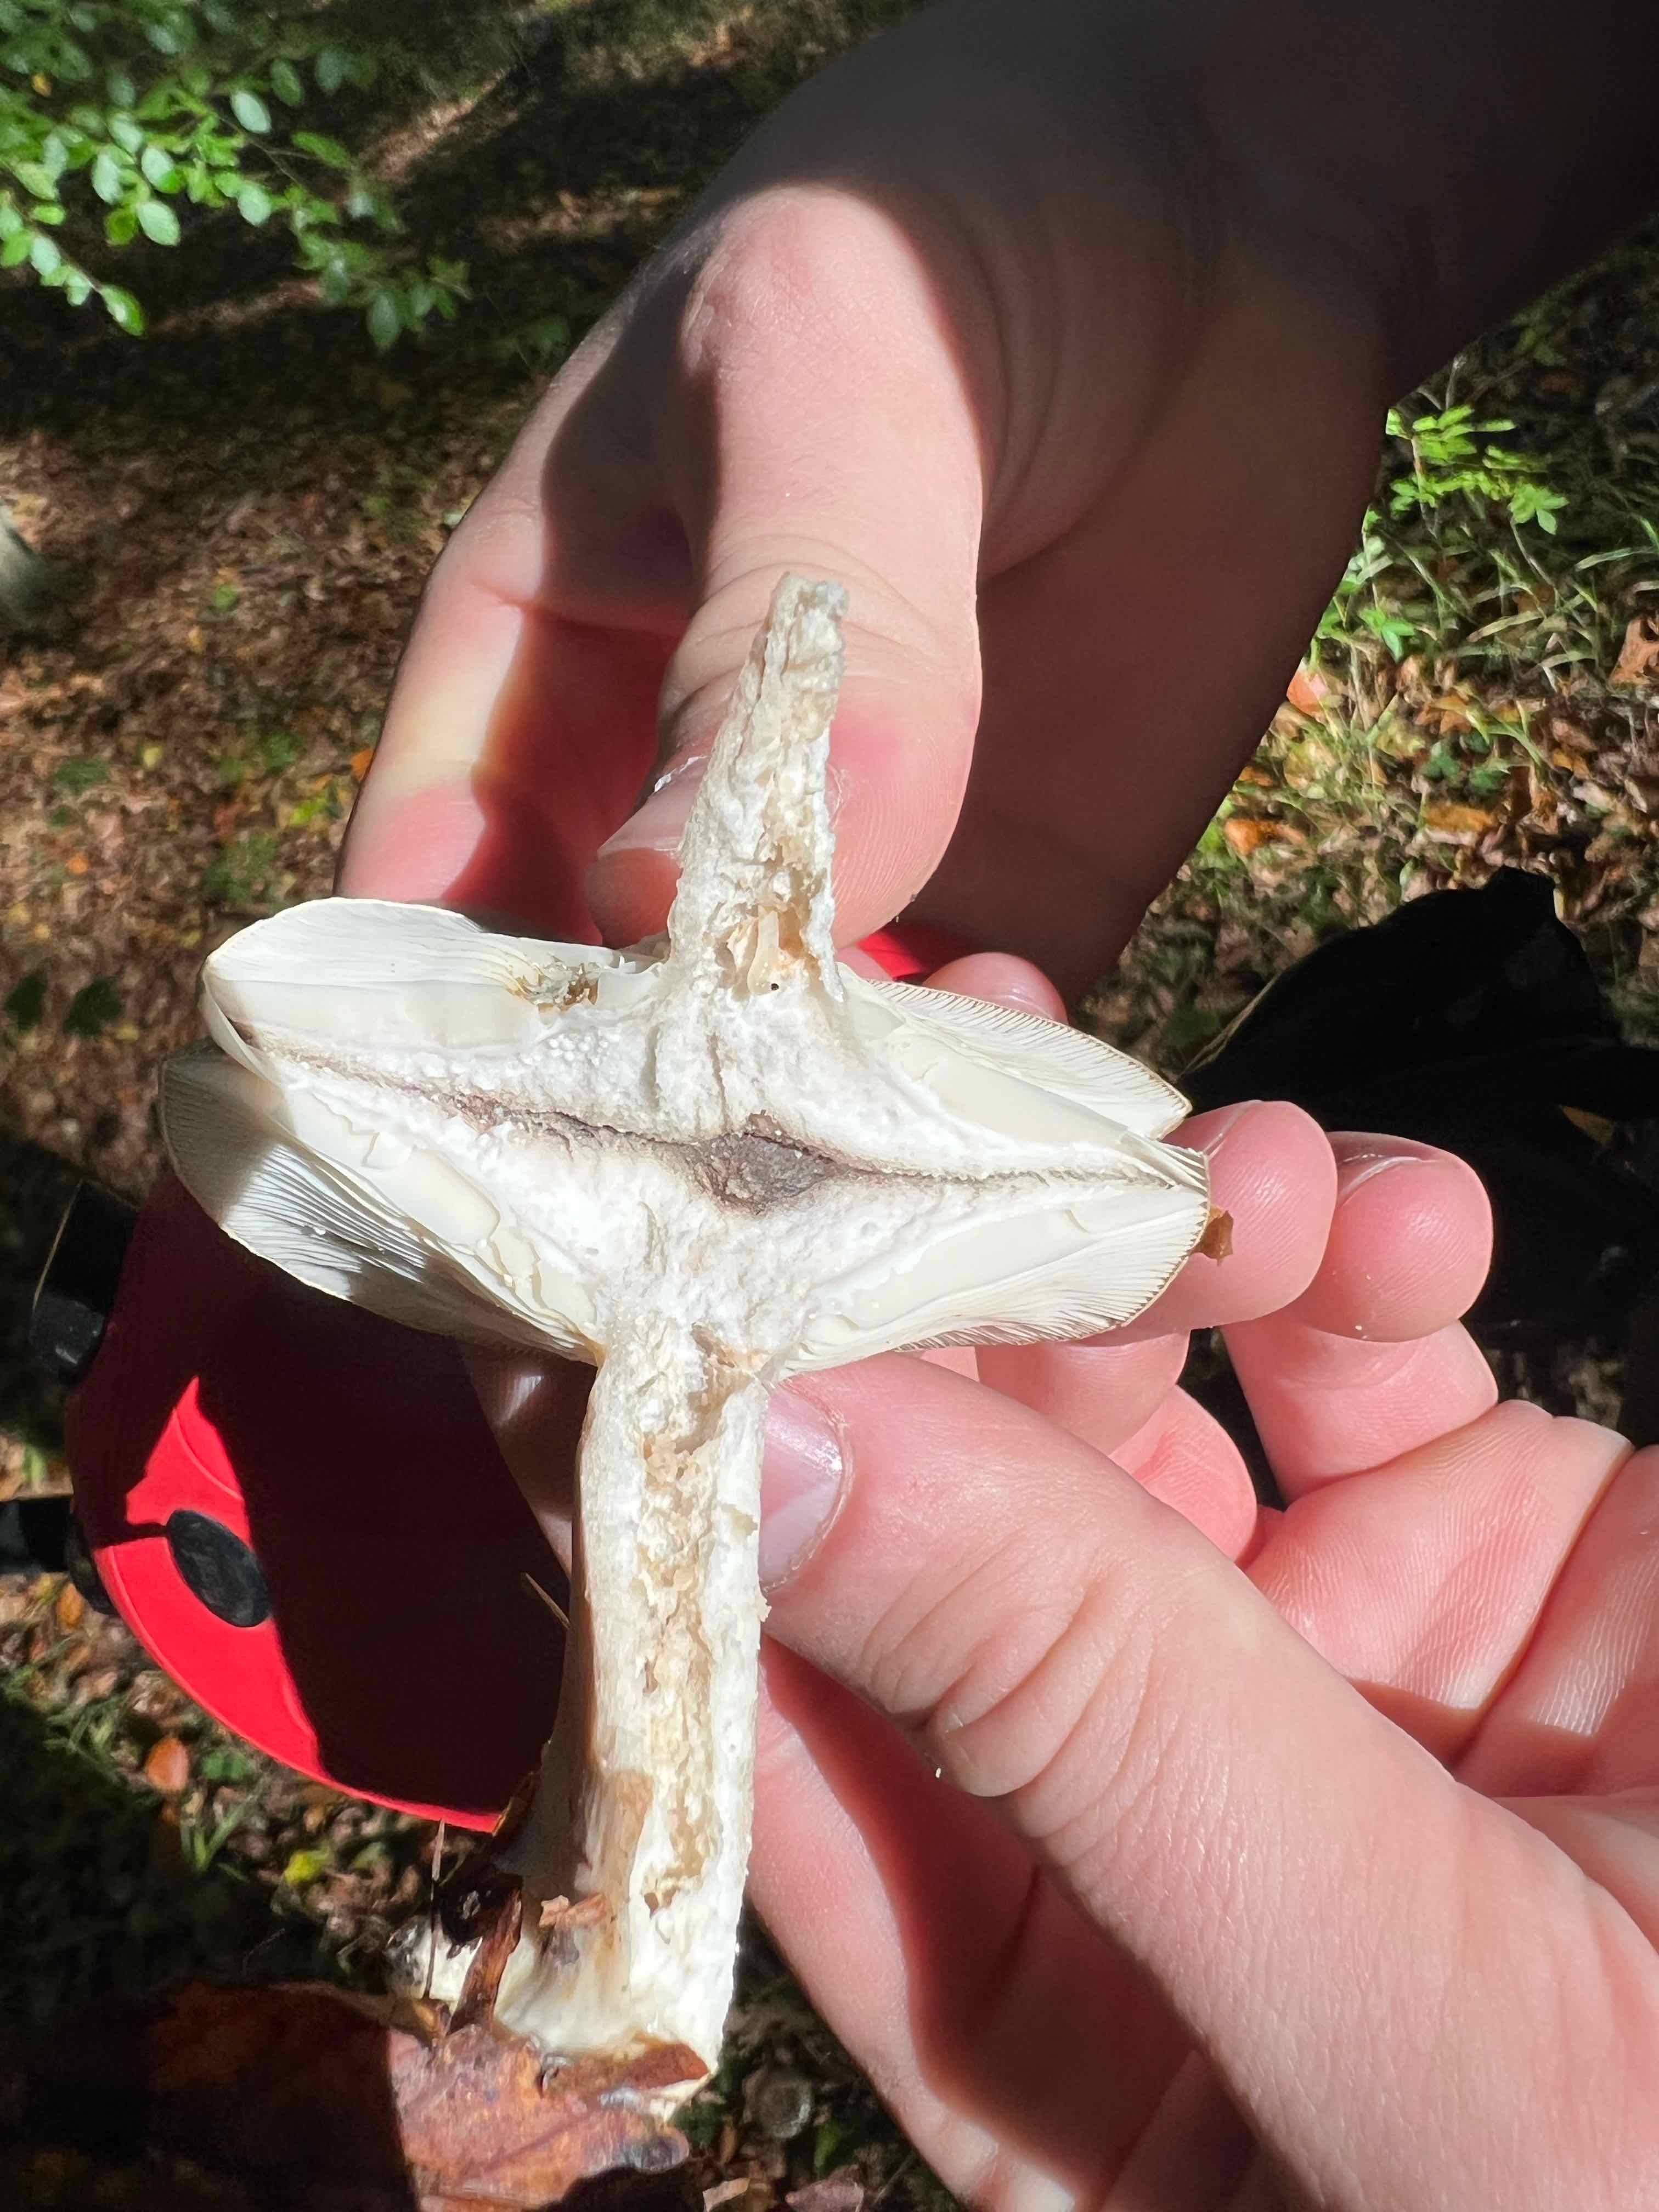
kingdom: Fungi
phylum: Basidiomycota
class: Agaricomycetes
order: Russulales
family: Russulaceae
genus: Lactarius
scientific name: Lactarius
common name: mælkehat
